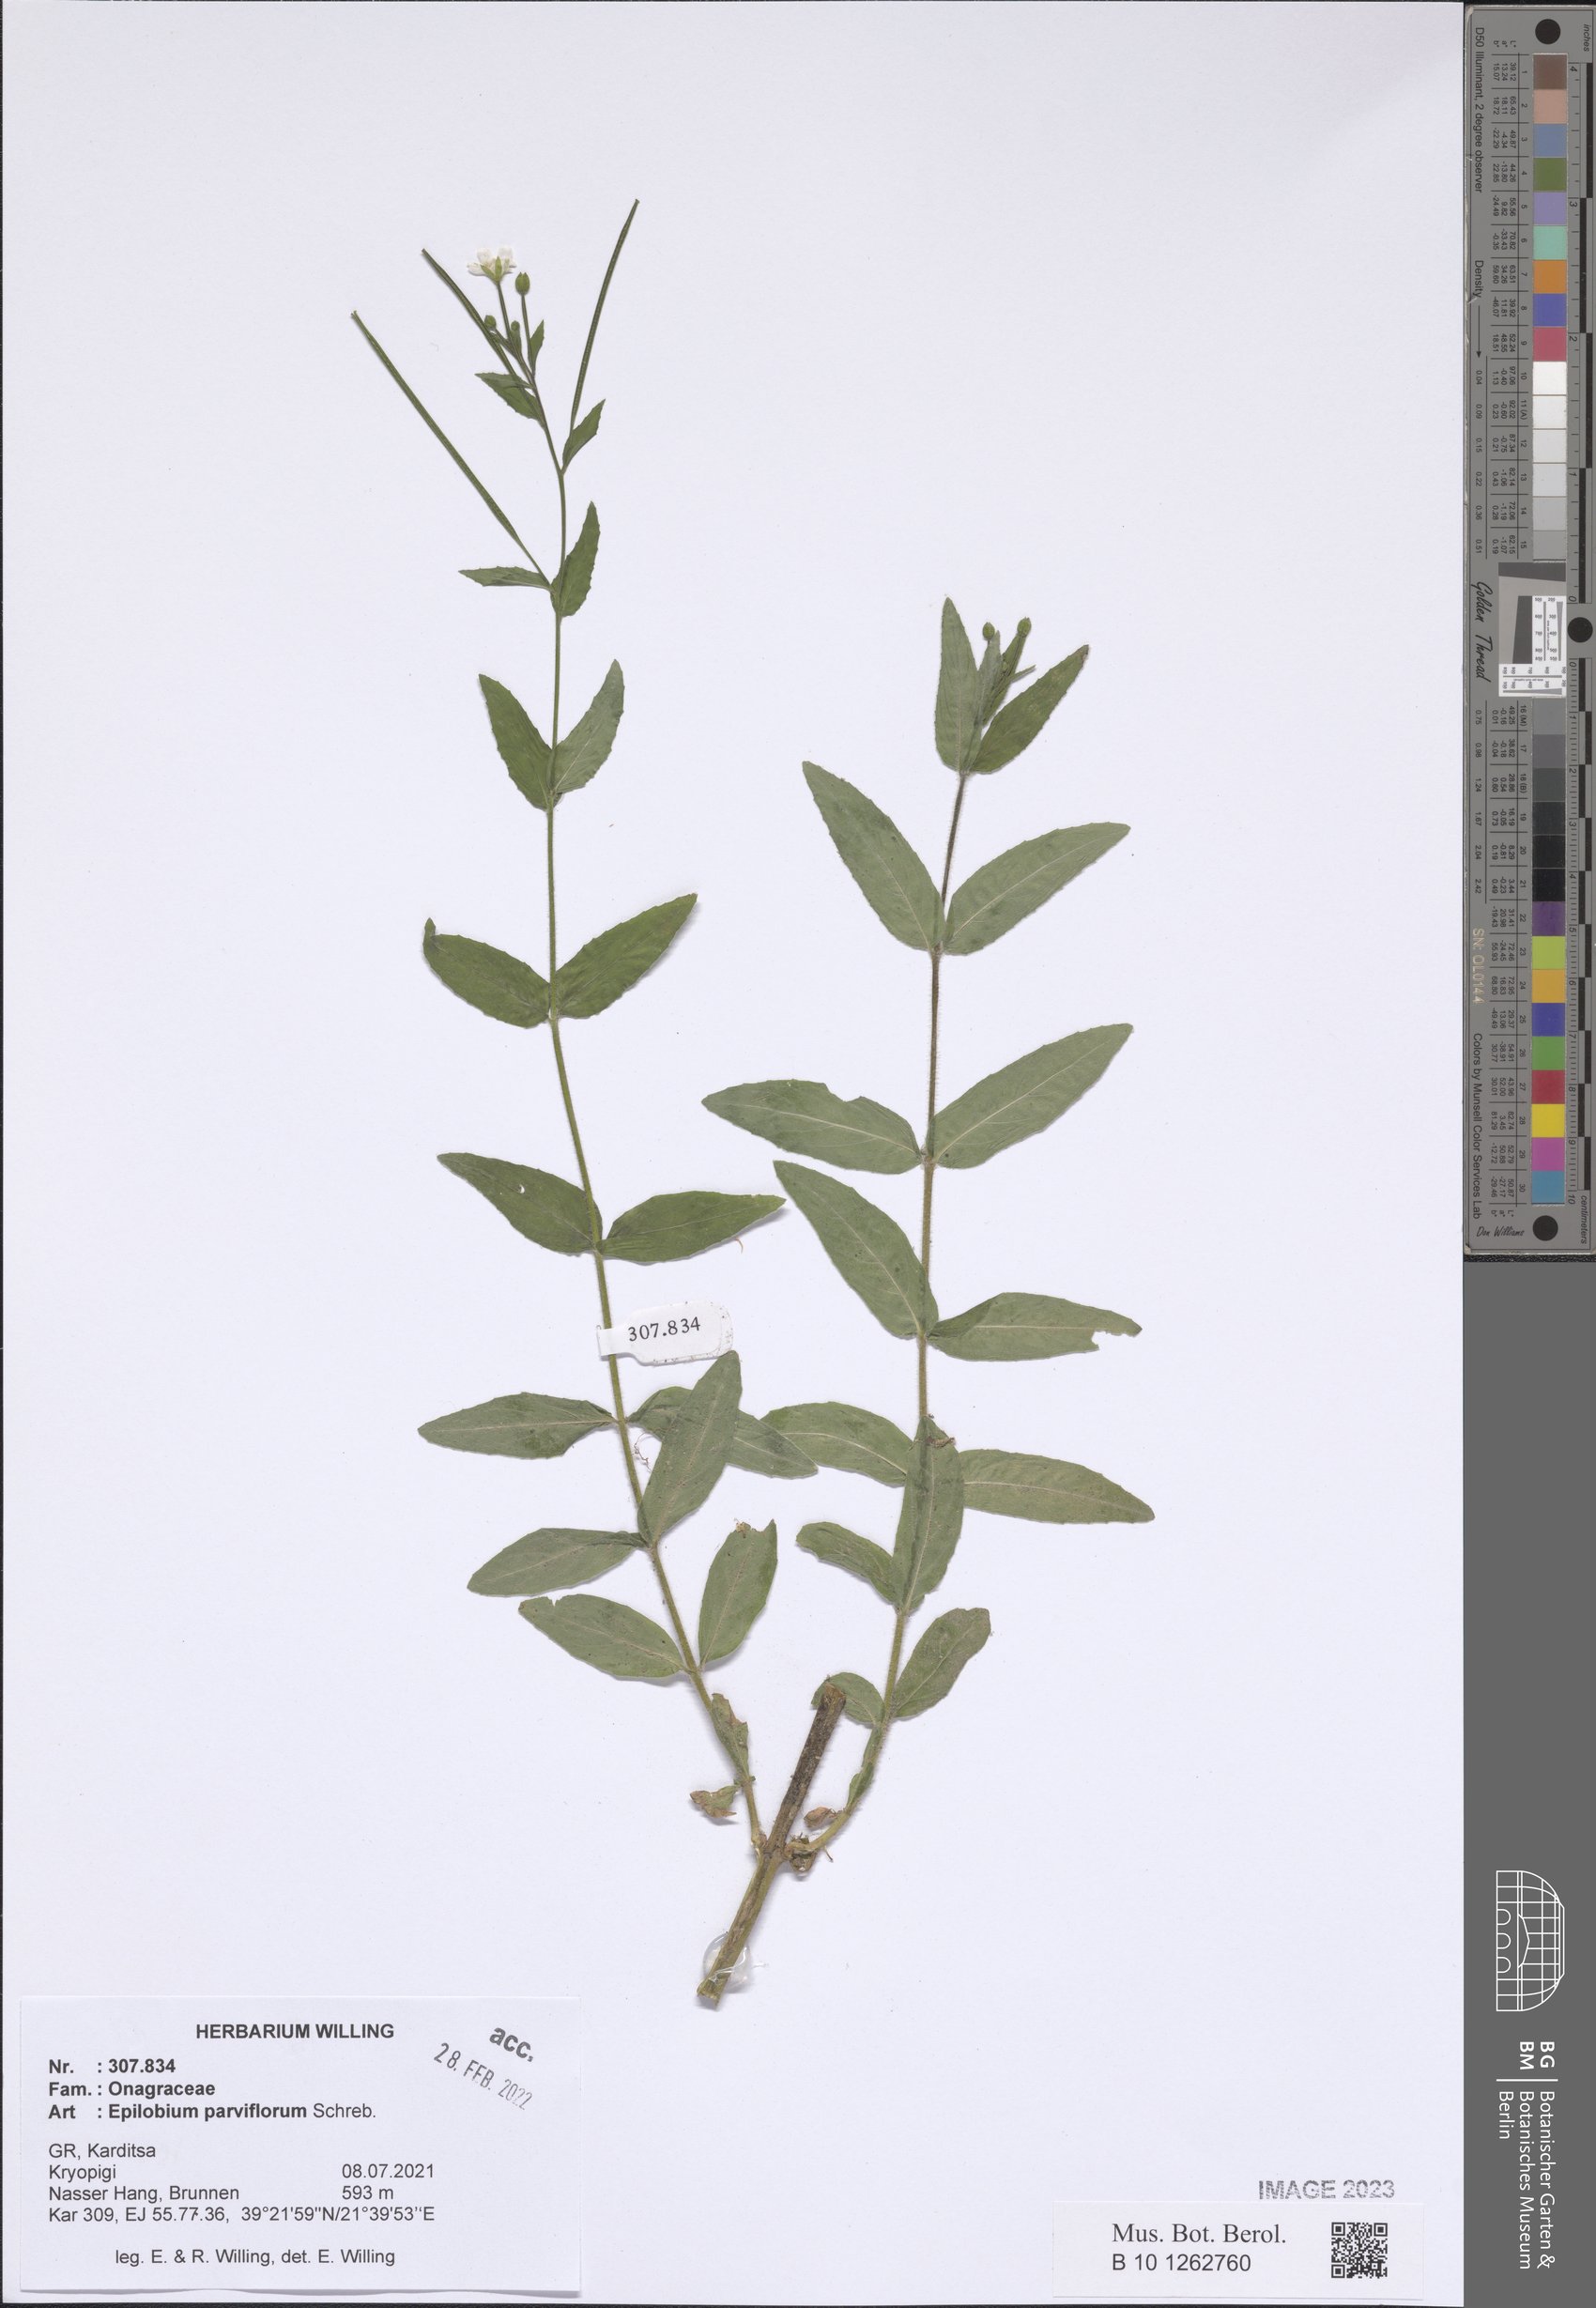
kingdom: Plantae
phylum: Tracheophyta
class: Magnoliopsida
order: Myrtales
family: Onagraceae
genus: Epilobium
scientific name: Epilobium parviflorum
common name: Hoary willowherb
